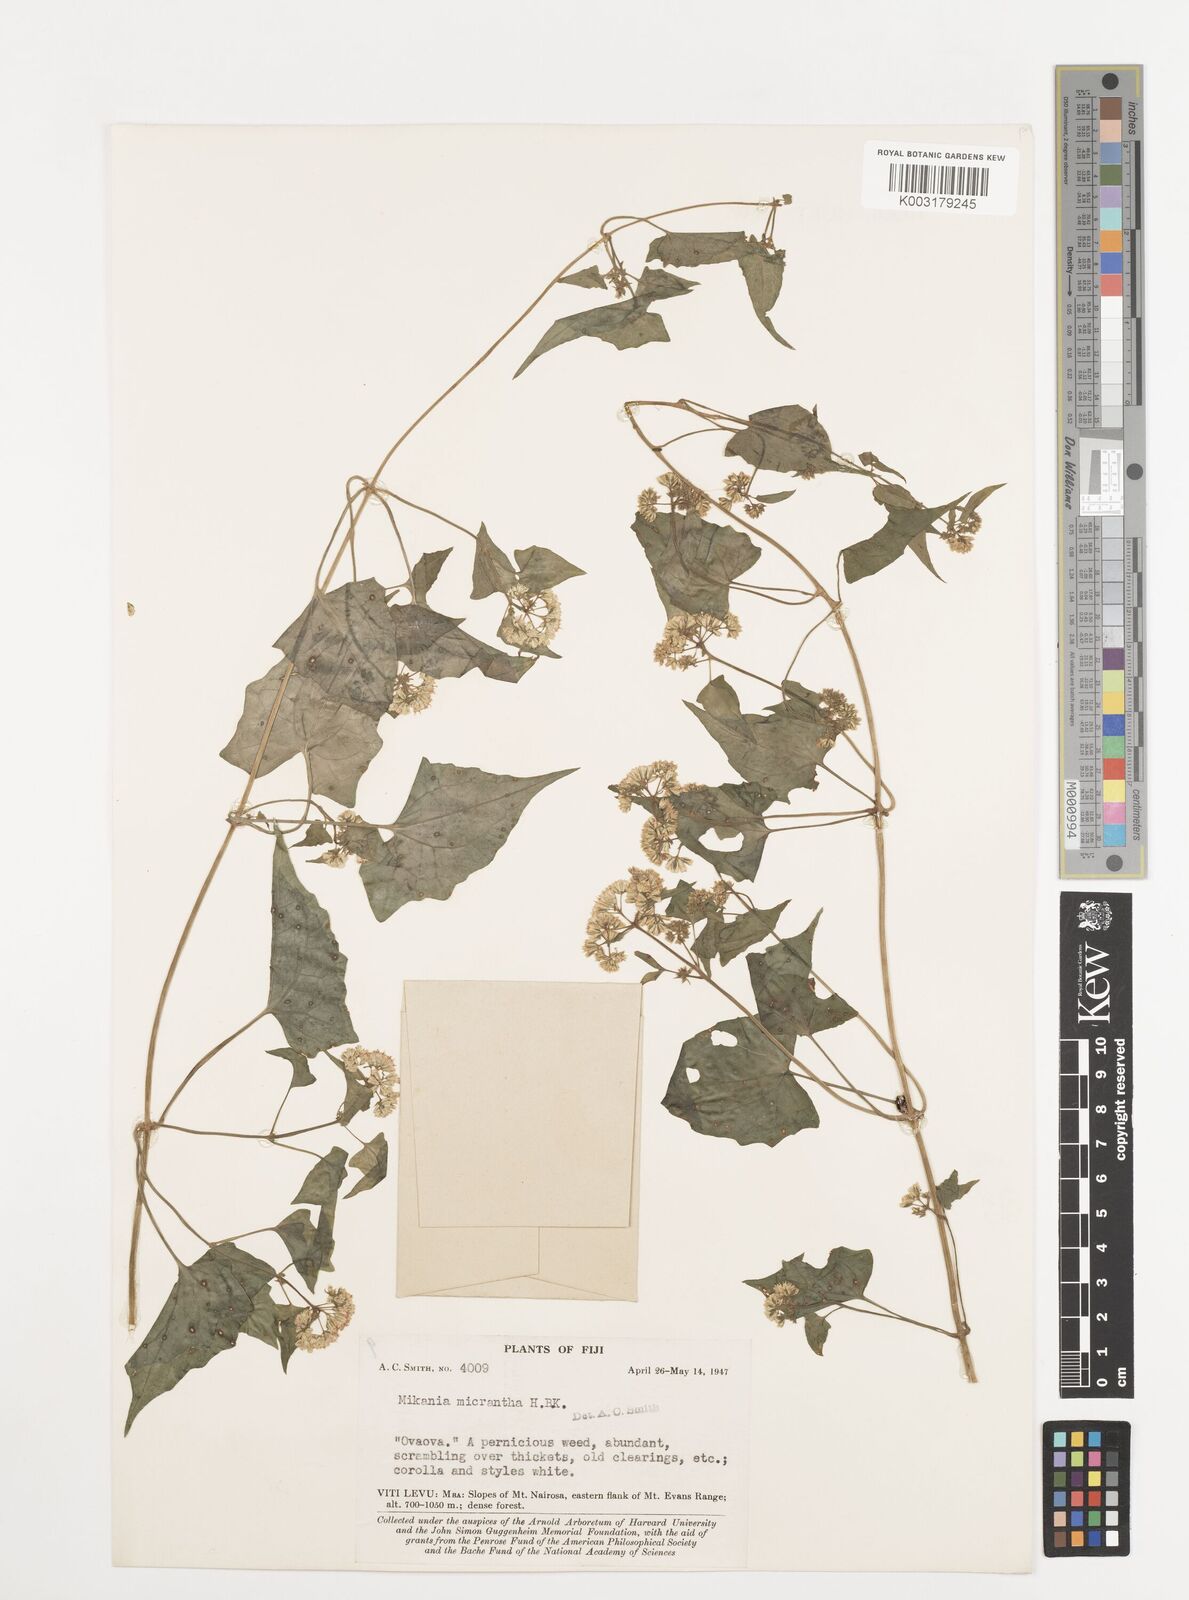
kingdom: Plantae
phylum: Tracheophyta
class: Magnoliopsida
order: Asterales
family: Asteraceae
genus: Mikania
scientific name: Mikania micrantha
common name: Mile-a-minute
